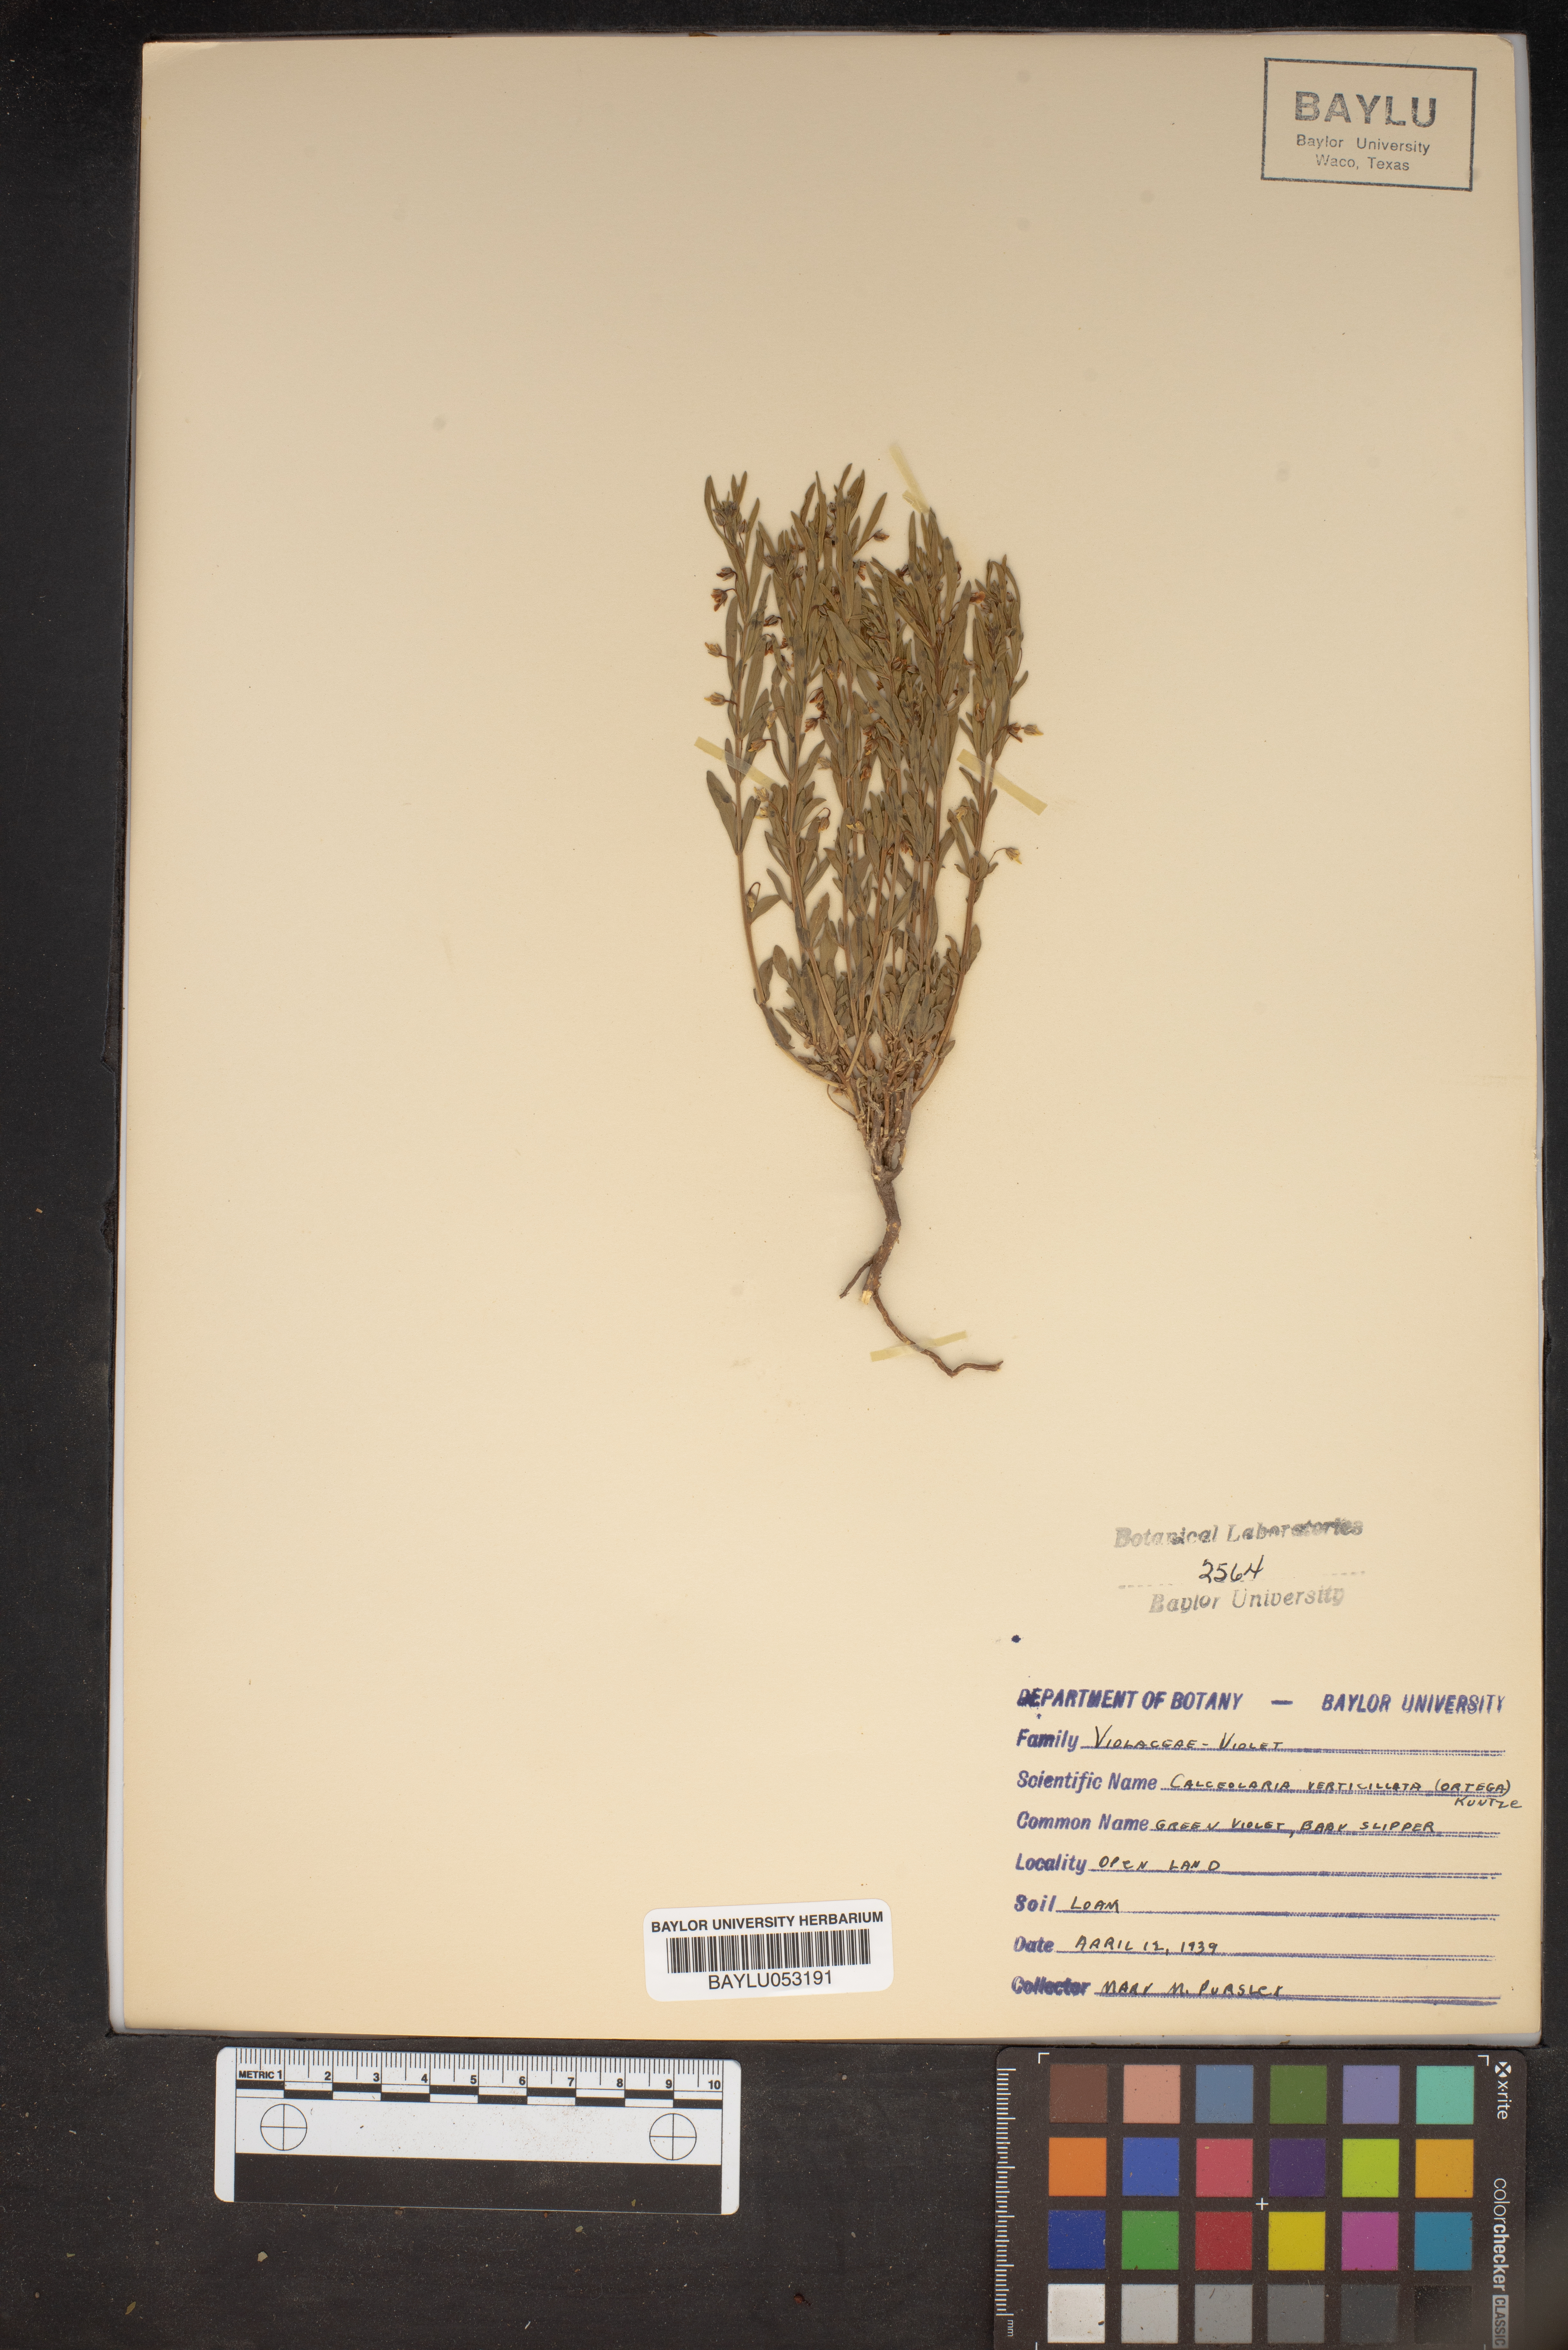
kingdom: Plantae
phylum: Tracheophyta
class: Magnoliopsida
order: Malpighiales
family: Violaceae
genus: Pombalia
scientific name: Pombalia verticillata
